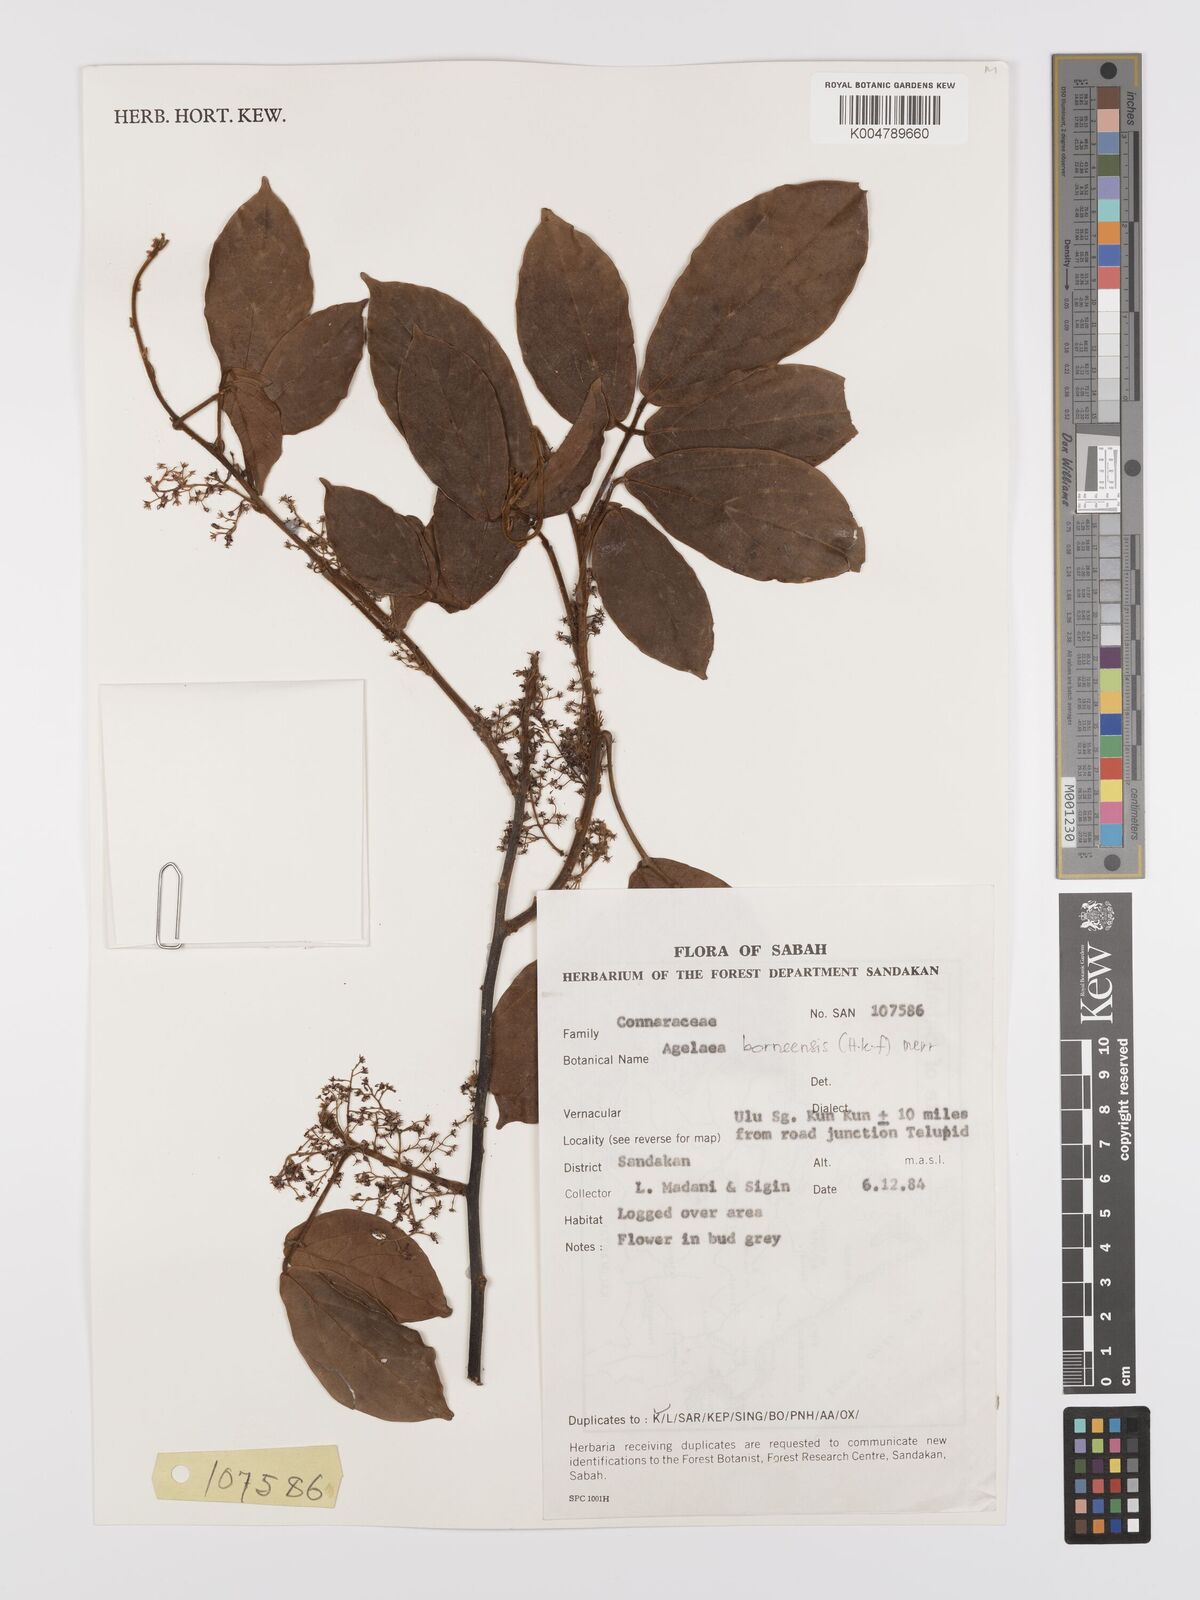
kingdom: Plantae
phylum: Tracheophyta
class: Magnoliopsida
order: Oxalidales
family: Connaraceae
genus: Agelaea
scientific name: Agelaea borneensis
